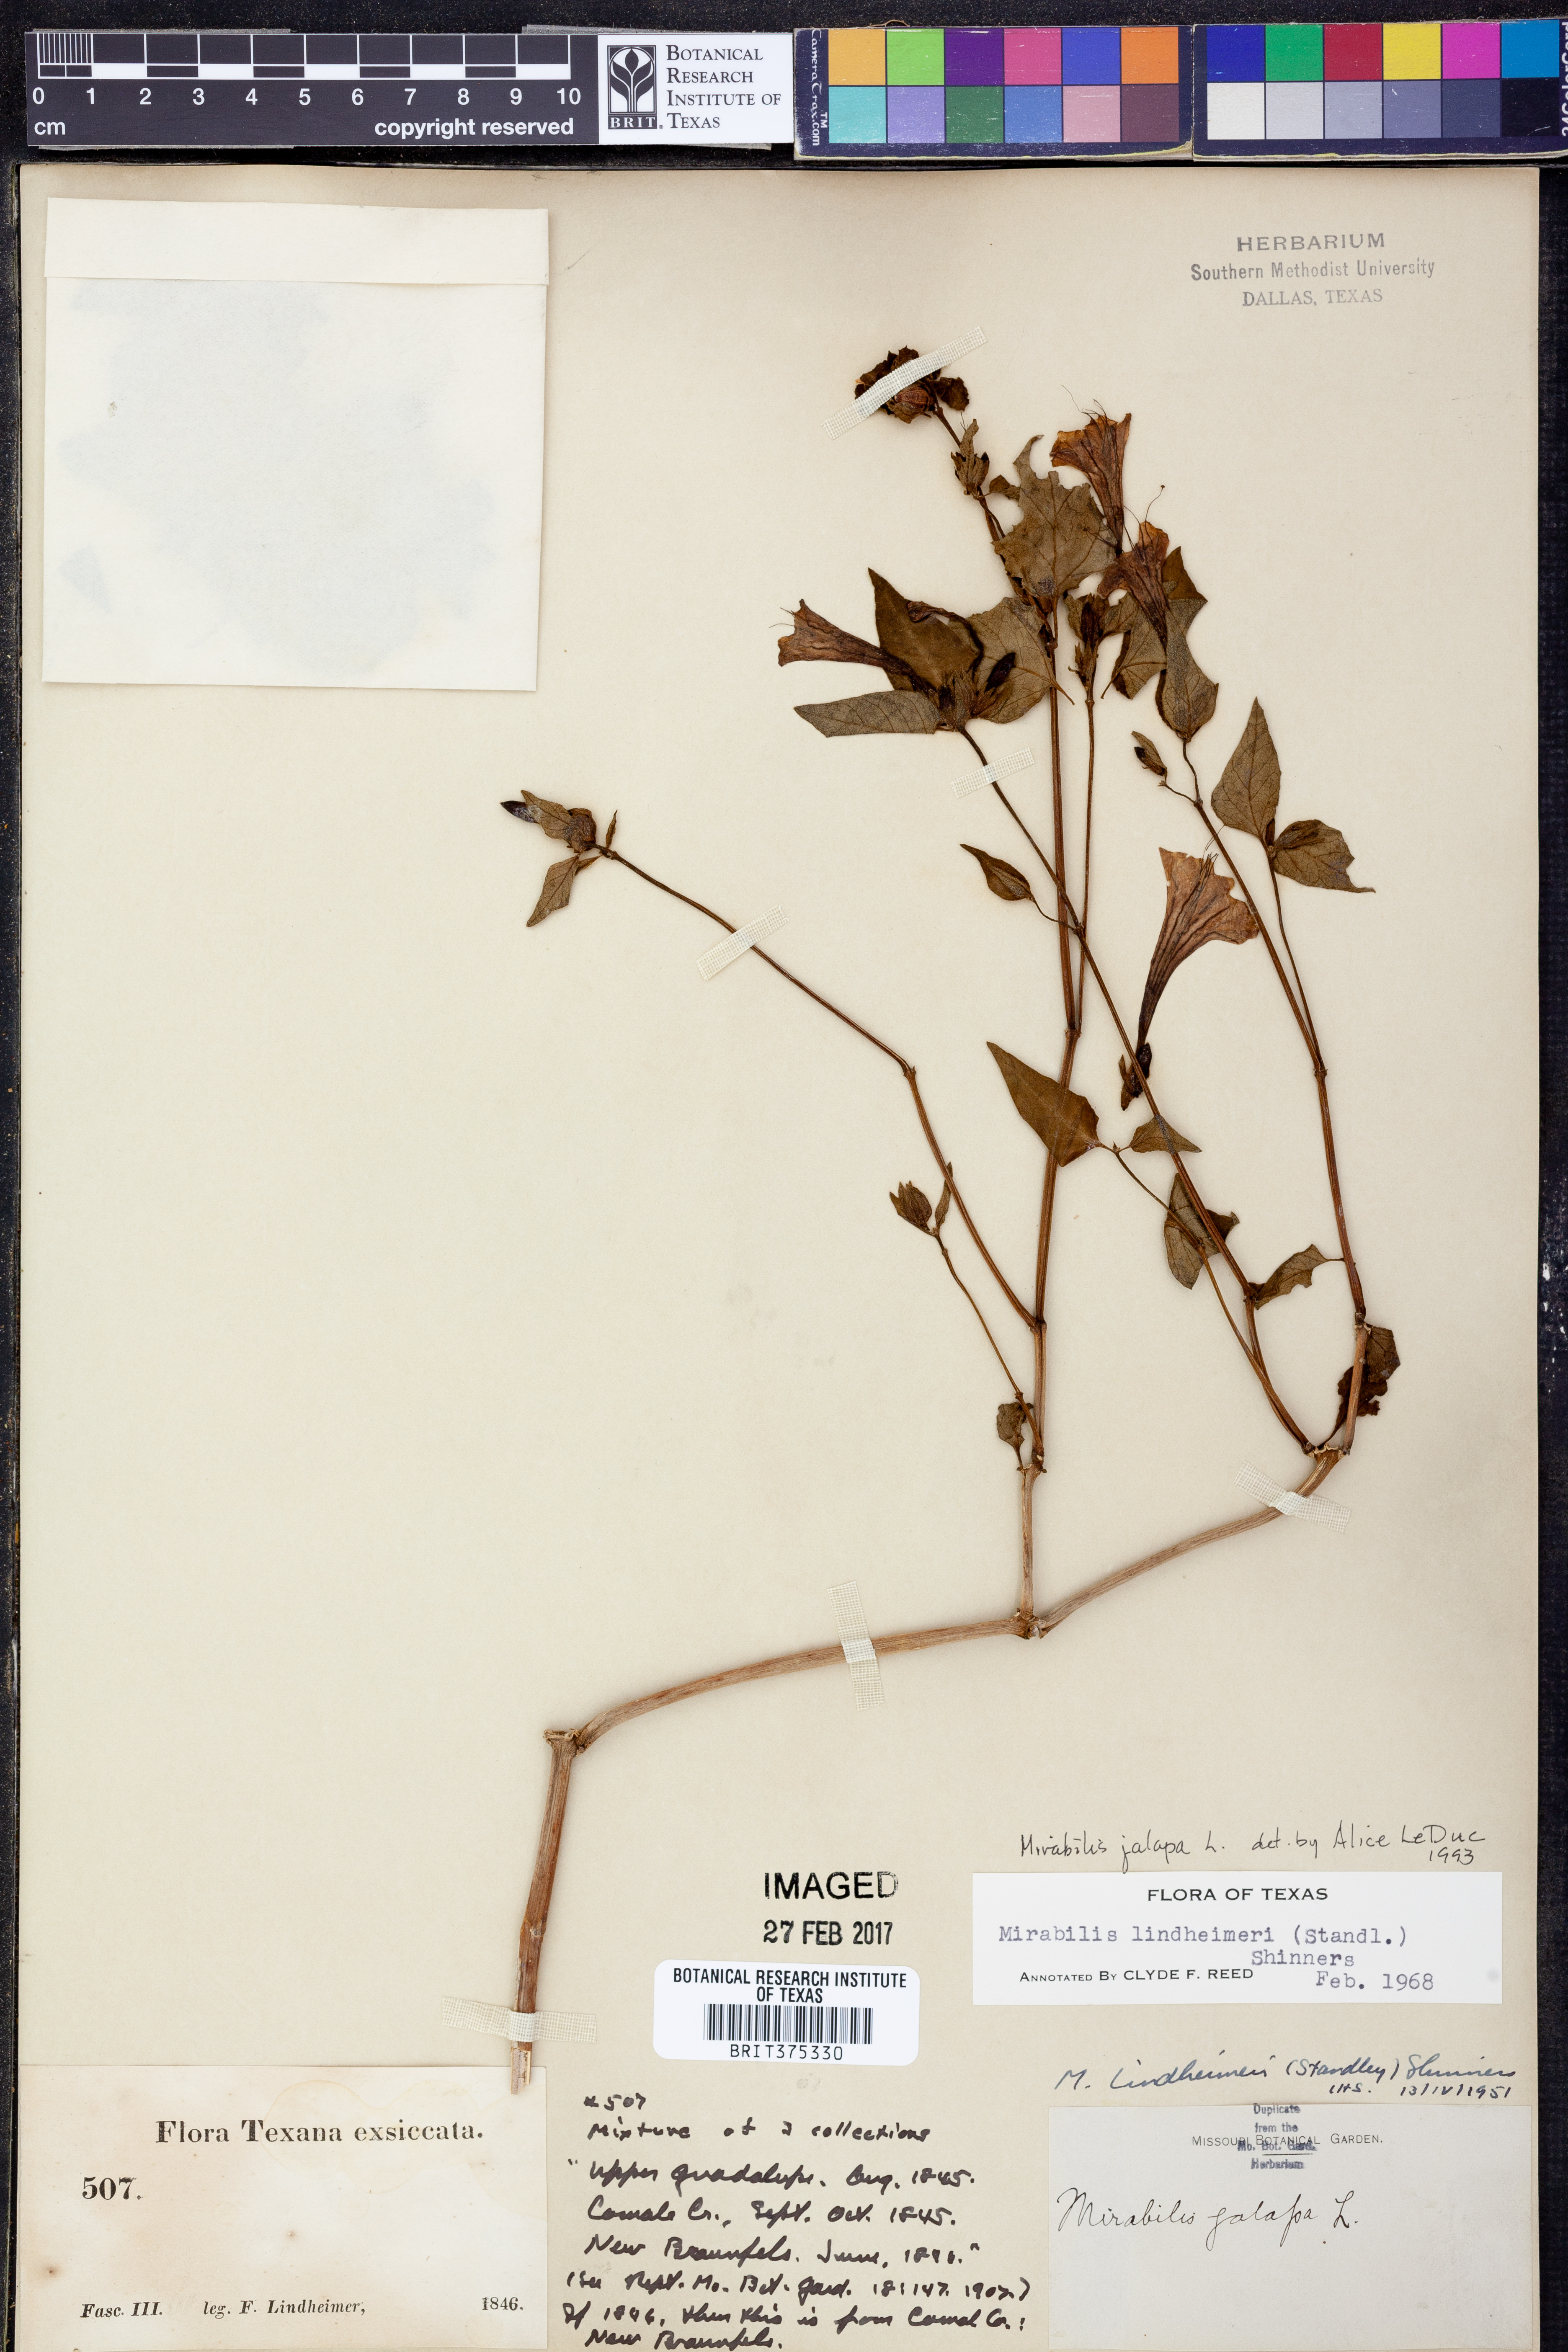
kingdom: Plantae
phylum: Tracheophyta
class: Magnoliopsida
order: Caryophyllales
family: Nyctaginaceae
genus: Mirabilis
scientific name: Mirabilis jalapa
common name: Marvel-of-peru
